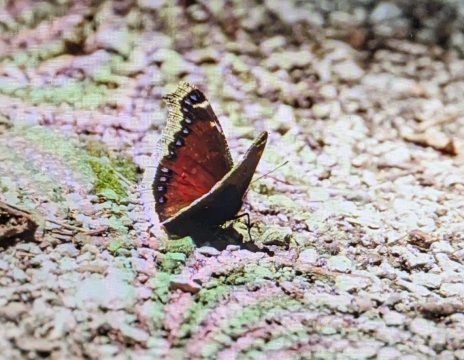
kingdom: Animalia
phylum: Arthropoda
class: Insecta
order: Lepidoptera
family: Nymphalidae
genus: Nymphalis
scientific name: Nymphalis antiopa
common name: Mourning Cloak
